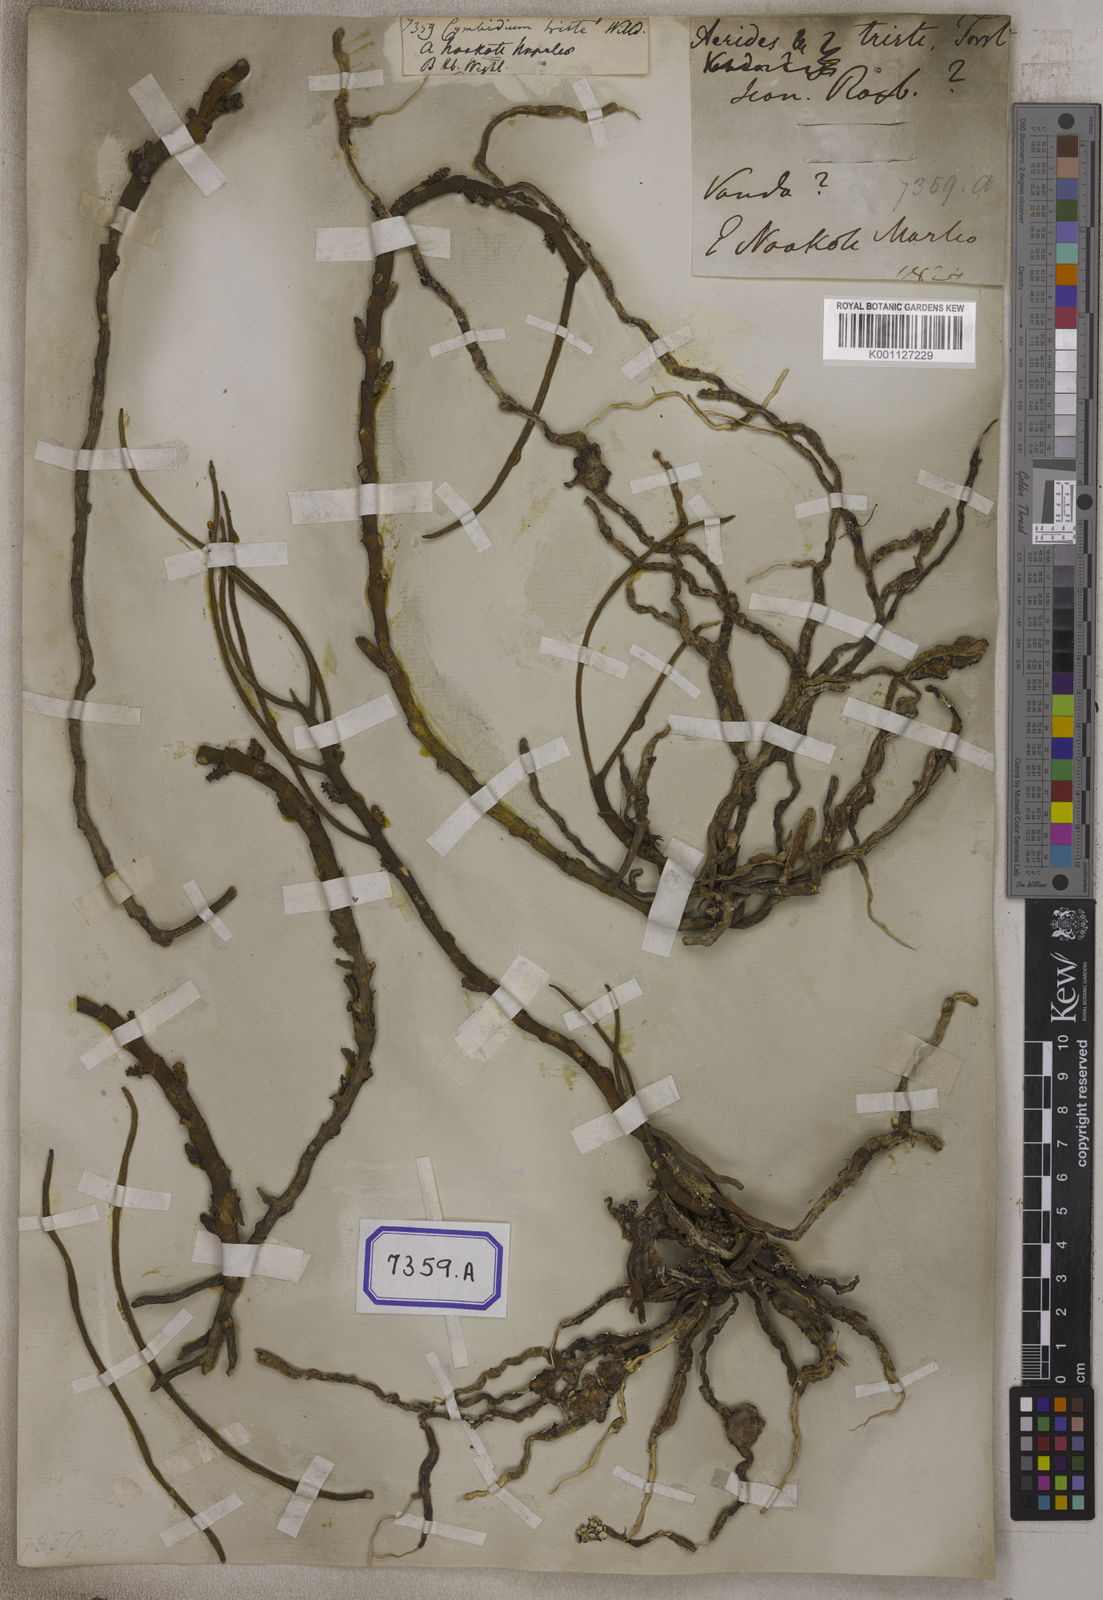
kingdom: Plantae
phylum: Tracheophyta
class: Liliopsida
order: Asparagales
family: Orchidaceae
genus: Luisia
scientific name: Luisia tristis
